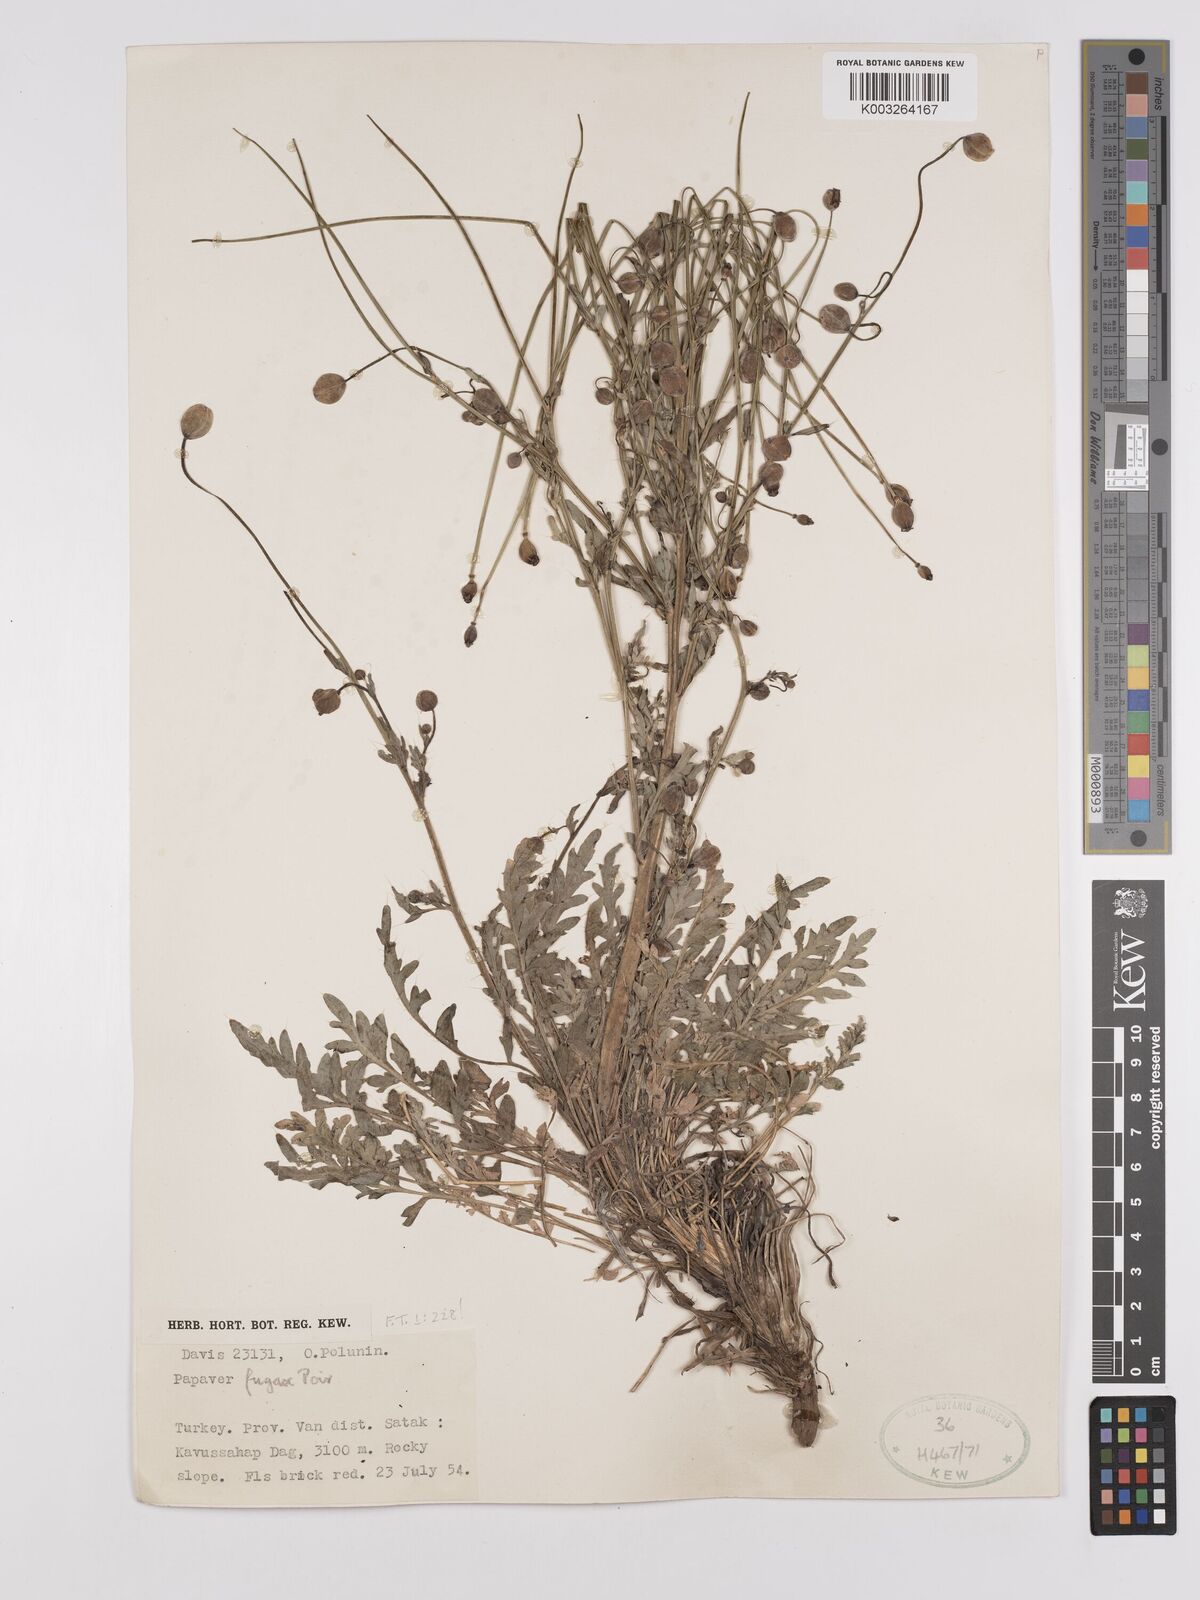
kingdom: Plantae
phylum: Tracheophyta
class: Magnoliopsida
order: Ranunculales
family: Papaveraceae
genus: Papaver
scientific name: Papaver armeniacum
